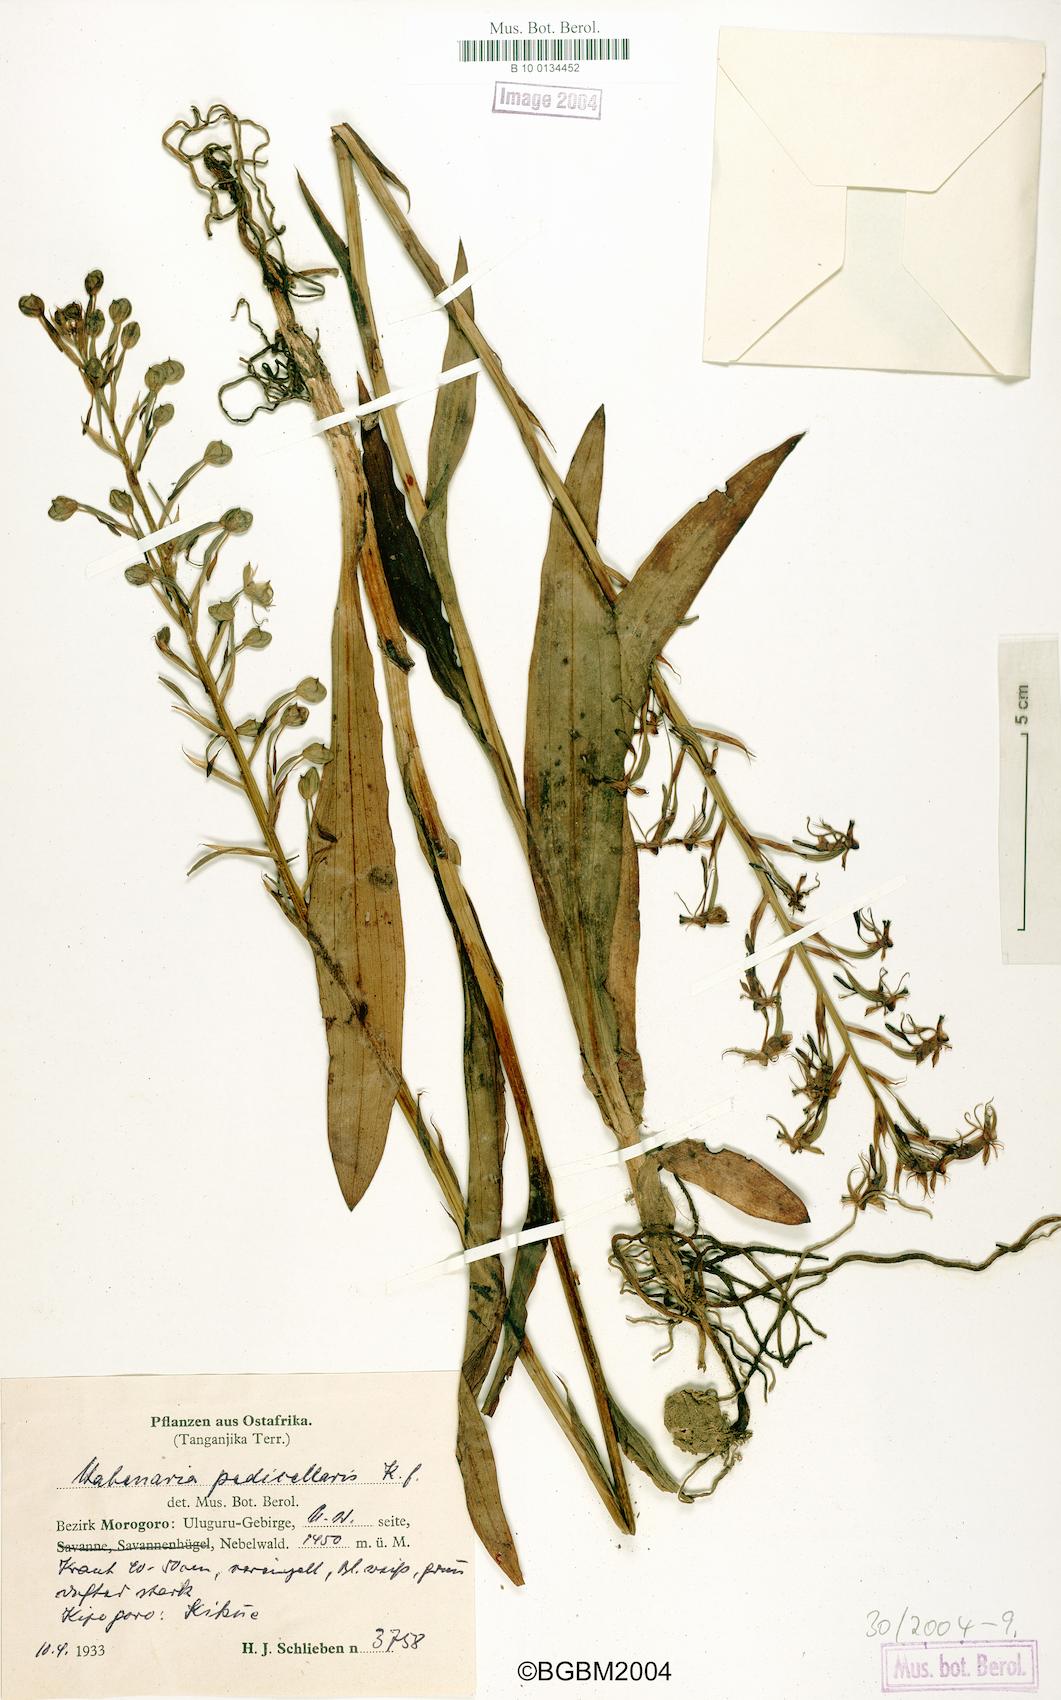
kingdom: Plantae
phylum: Tracheophyta
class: Liliopsida
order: Asparagales
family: Orchidaceae
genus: Habenaria
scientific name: Habenaria ichneumonea
